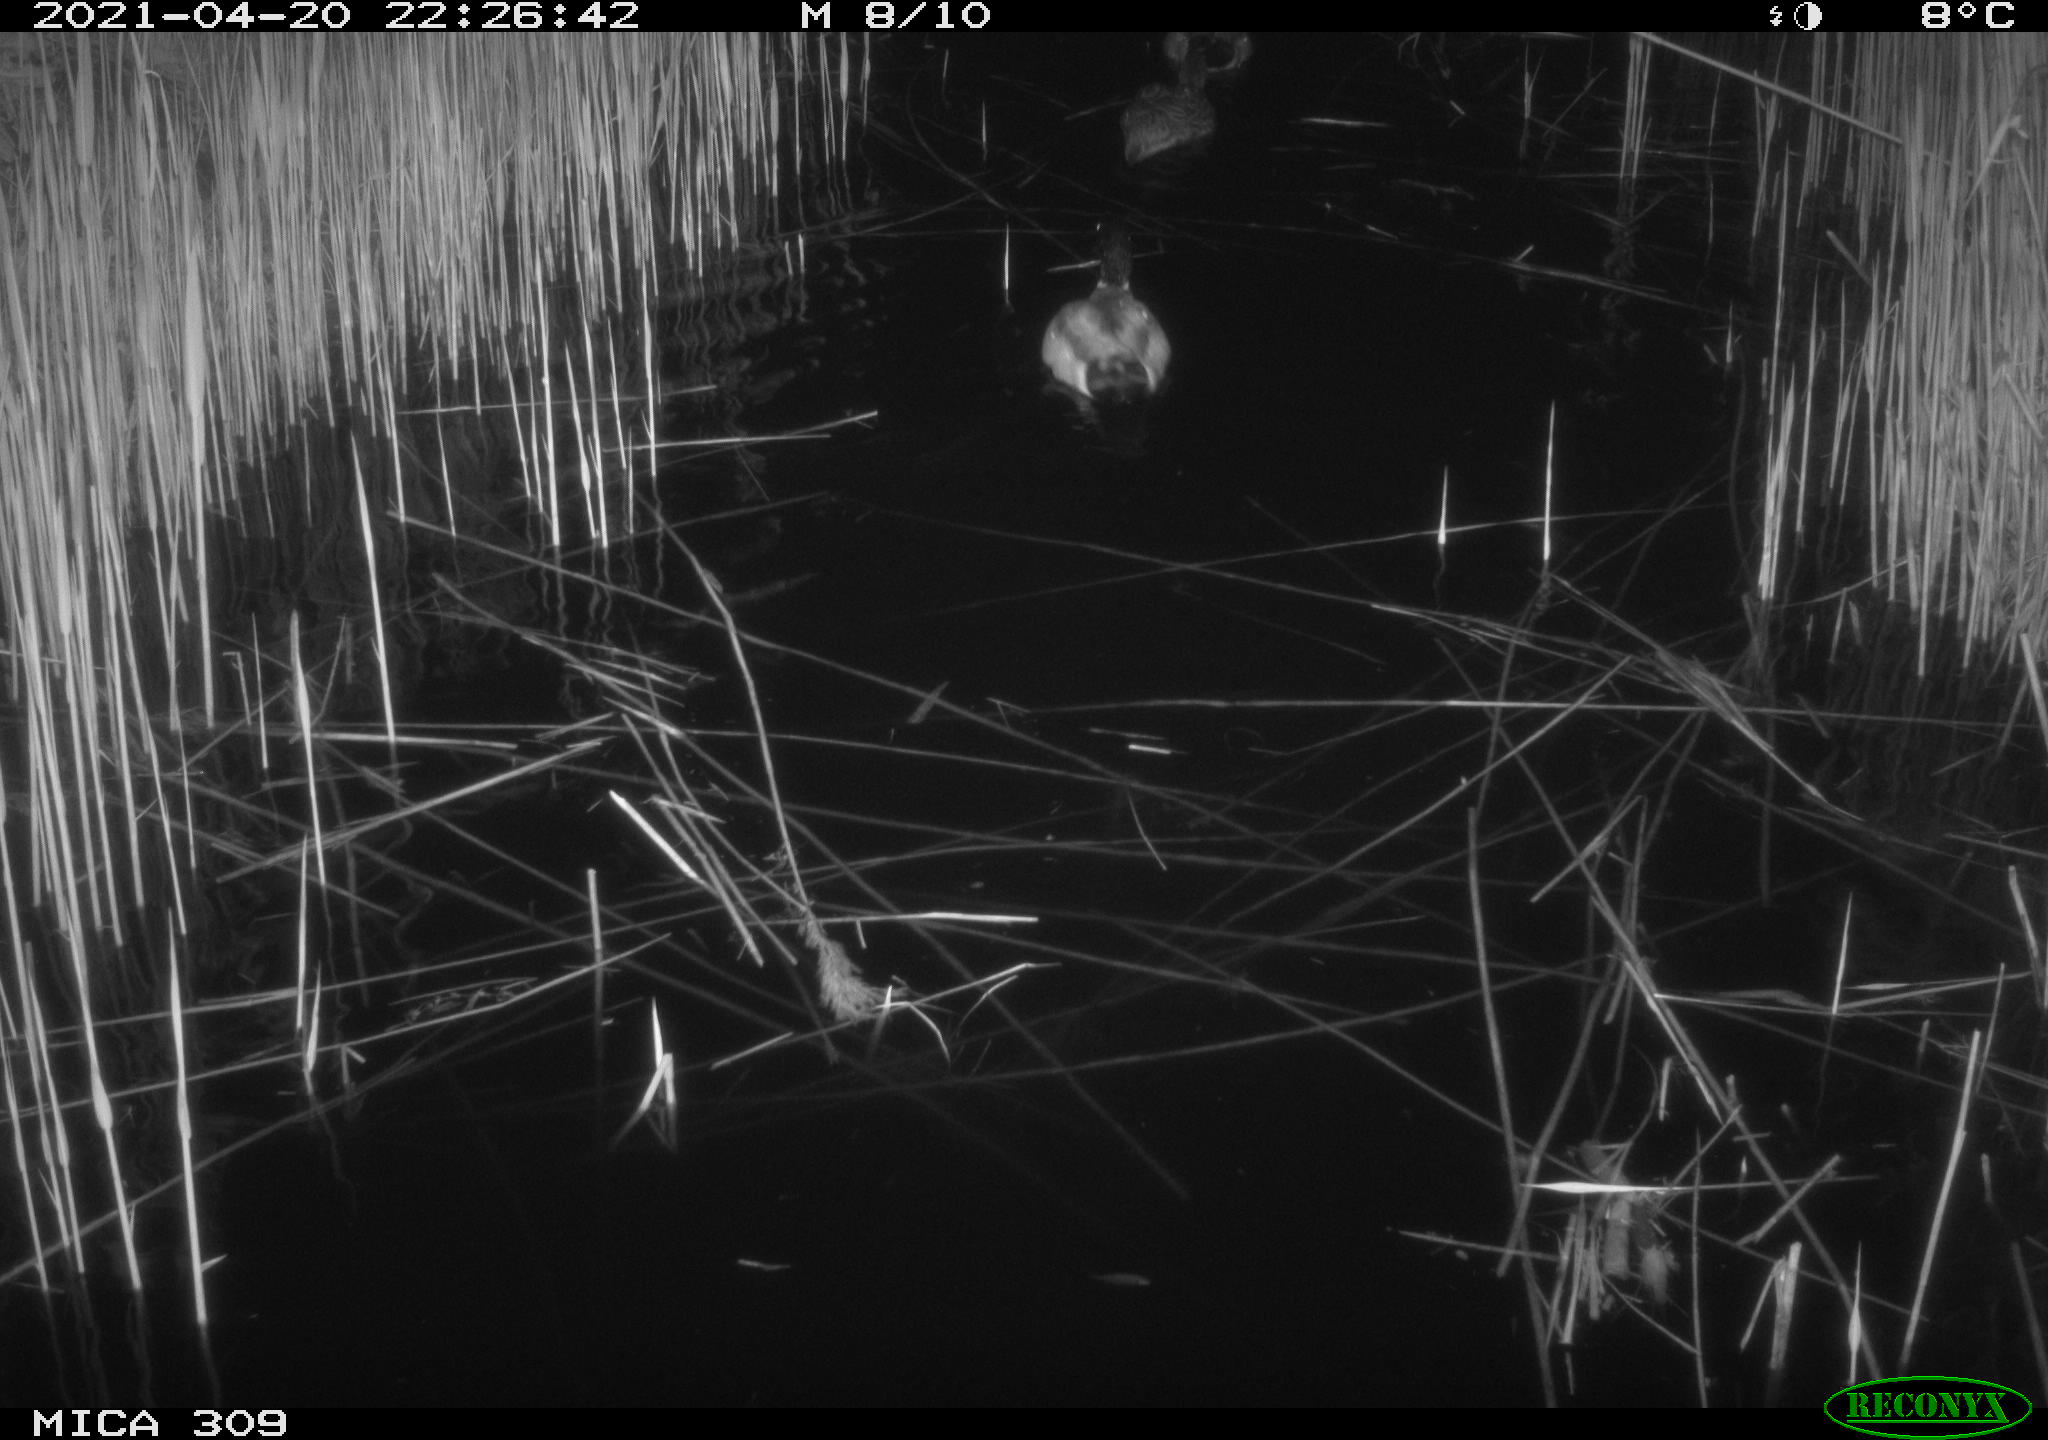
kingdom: Animalia
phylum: Chordata
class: Aves
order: Anseriformes
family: Anatidae
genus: Anas
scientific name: Anas platyrhynchos
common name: Mallard
